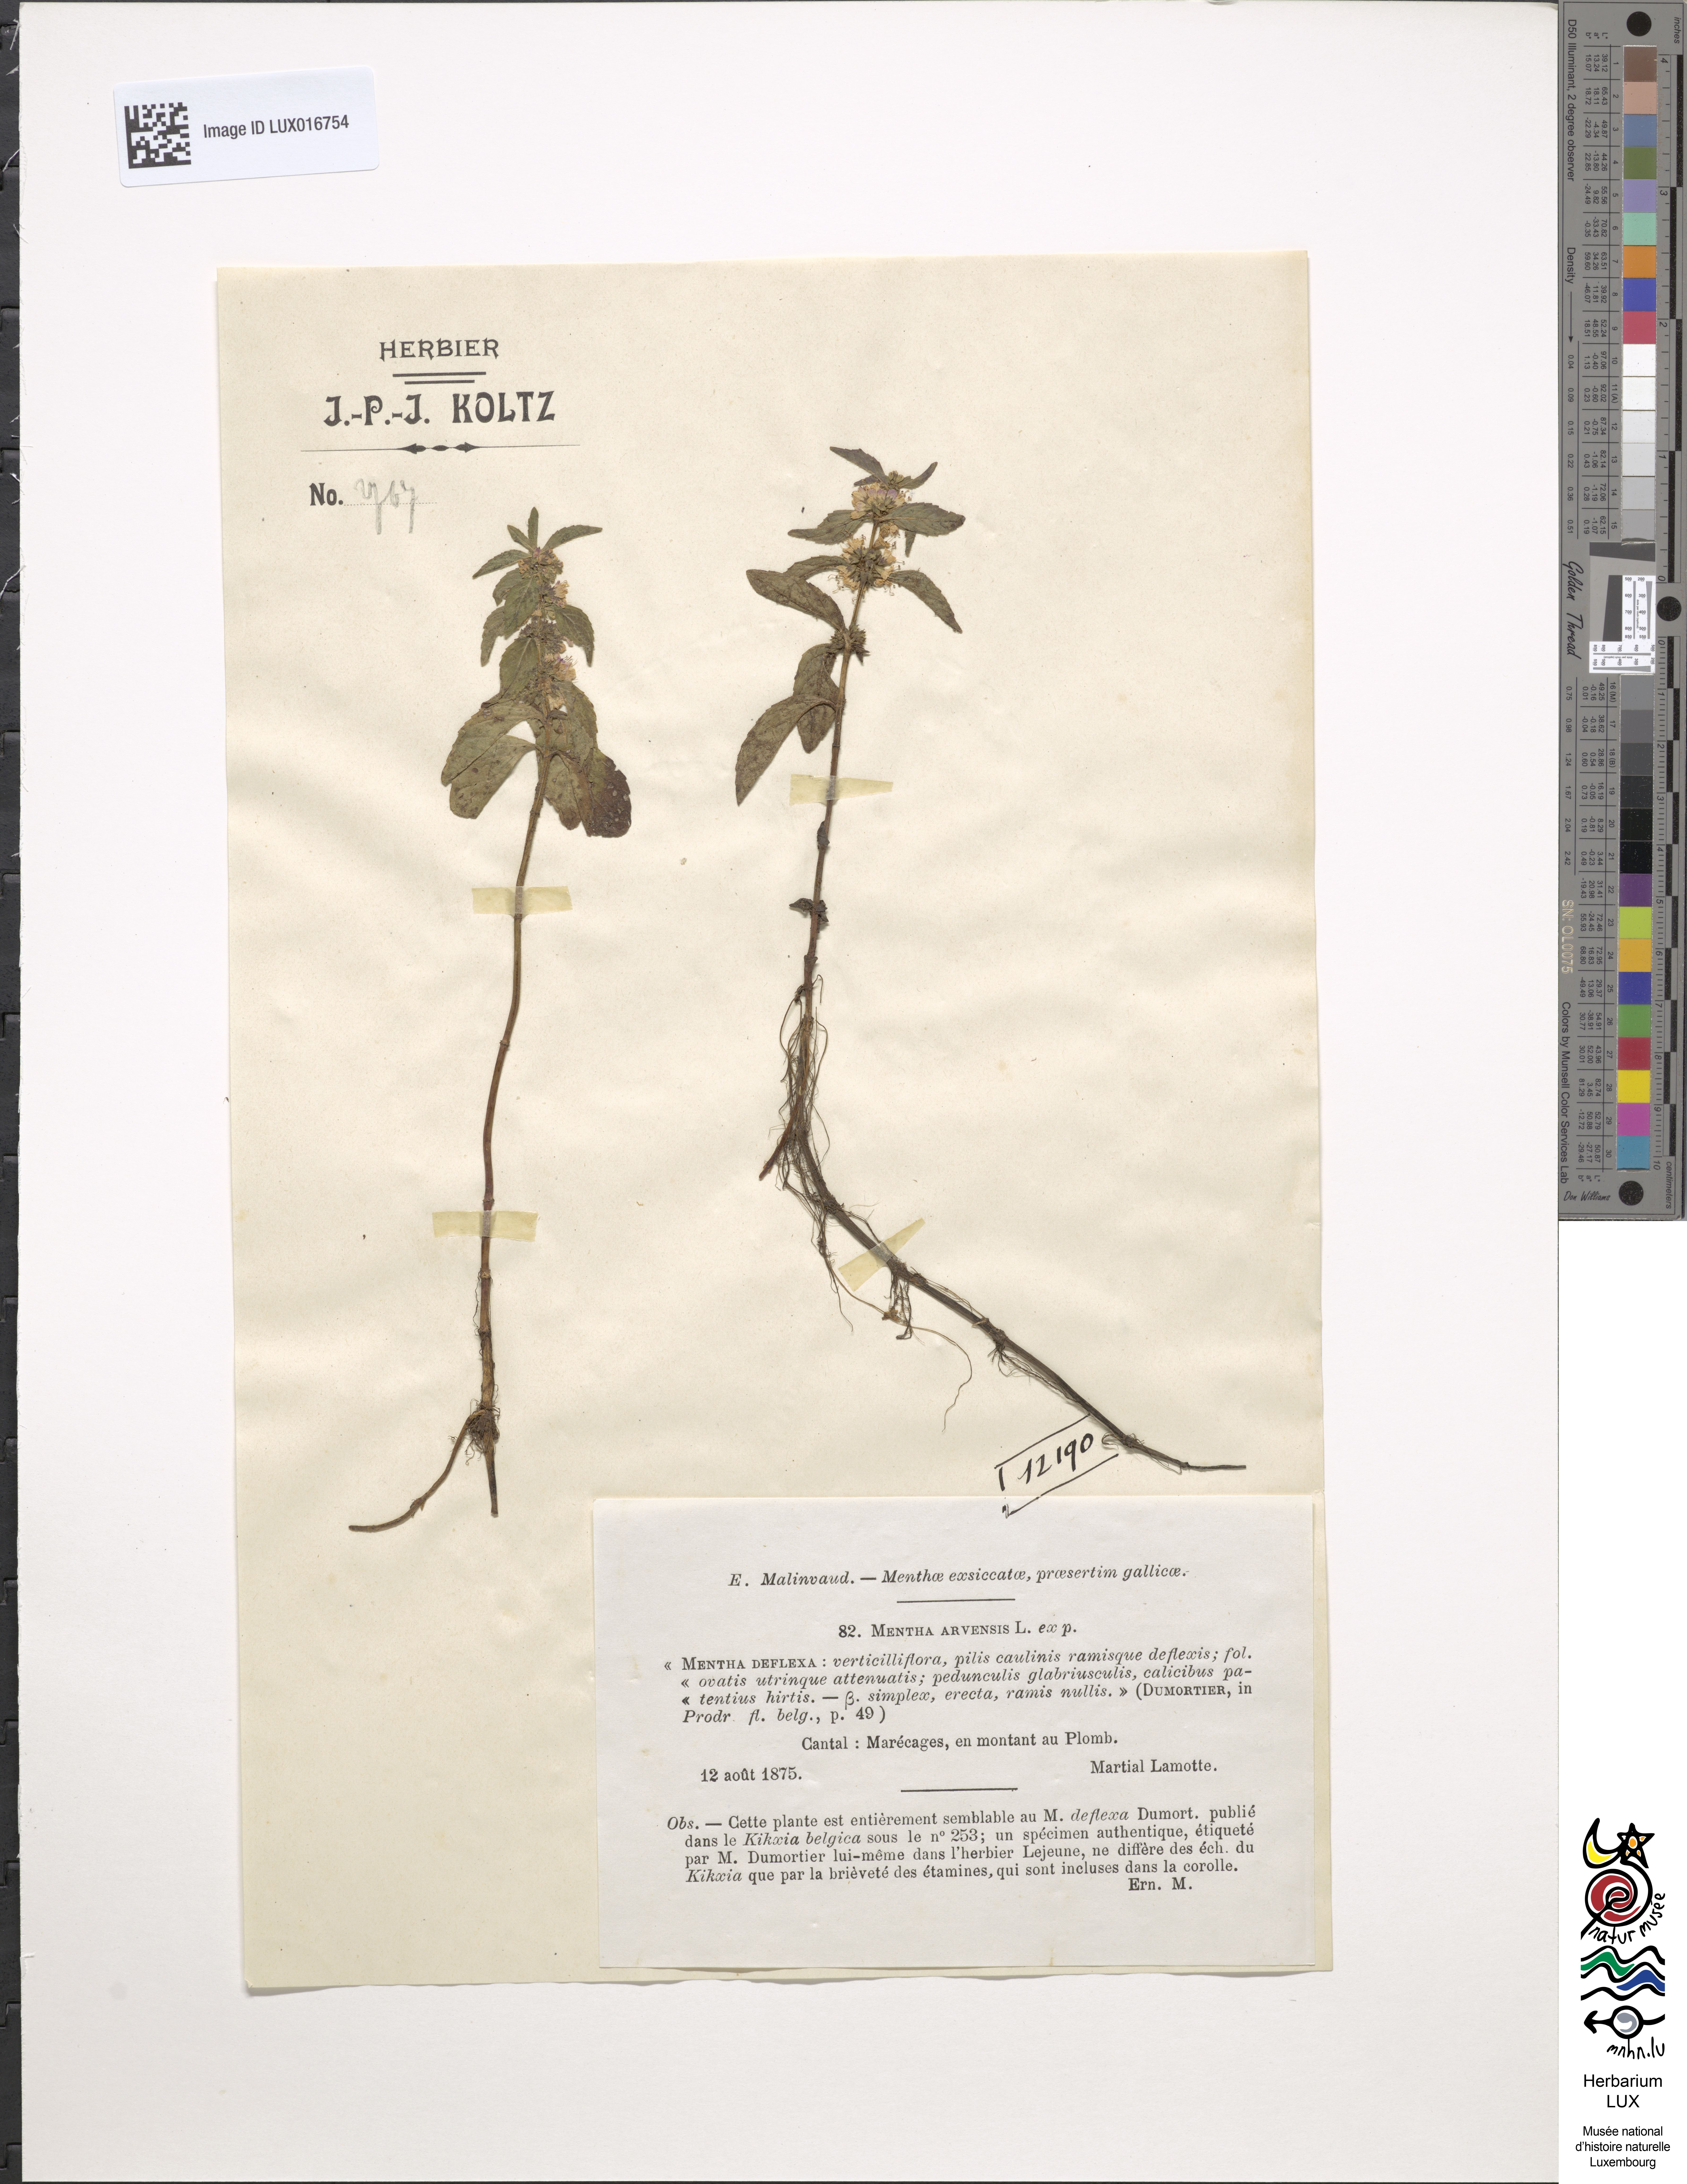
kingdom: Plantae
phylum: Tracheophyta
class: Magnoliopsida
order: Lamiales
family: Lamiaceae
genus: Mentha
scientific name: Mentha arvensis
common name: Corn mint
